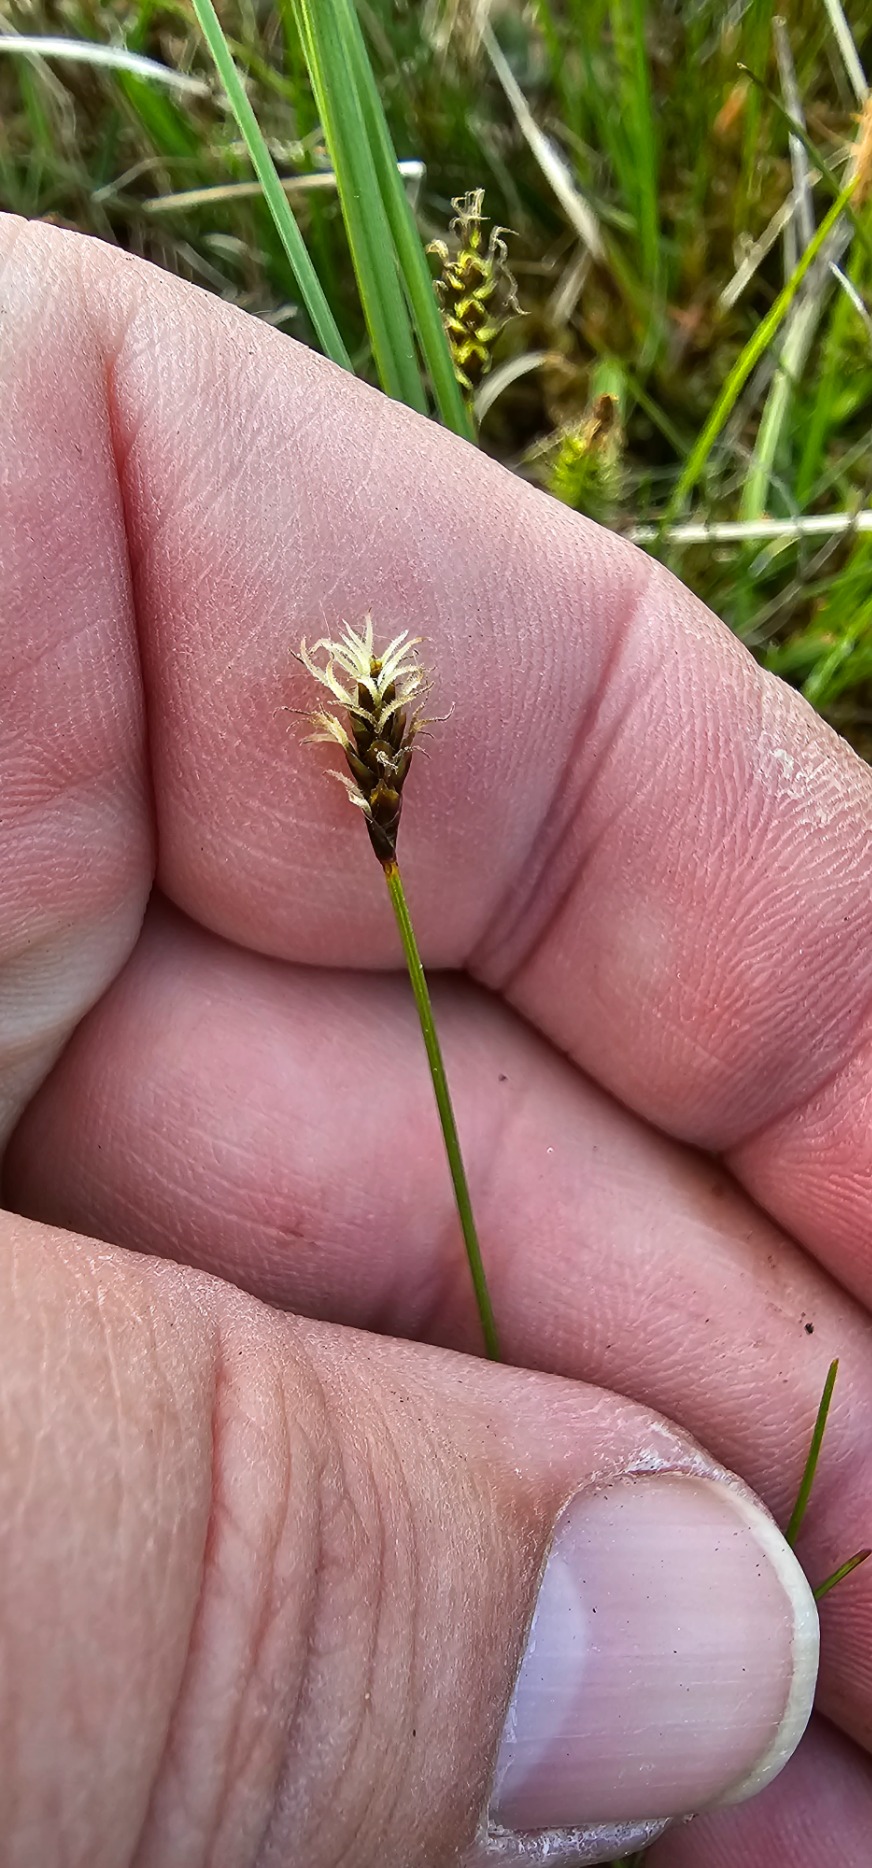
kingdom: Plantae
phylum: Tracheophyta
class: Liliopsida
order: Poales
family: Cyperaceae
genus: Carex
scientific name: Carex dioica
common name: Tvebo star
